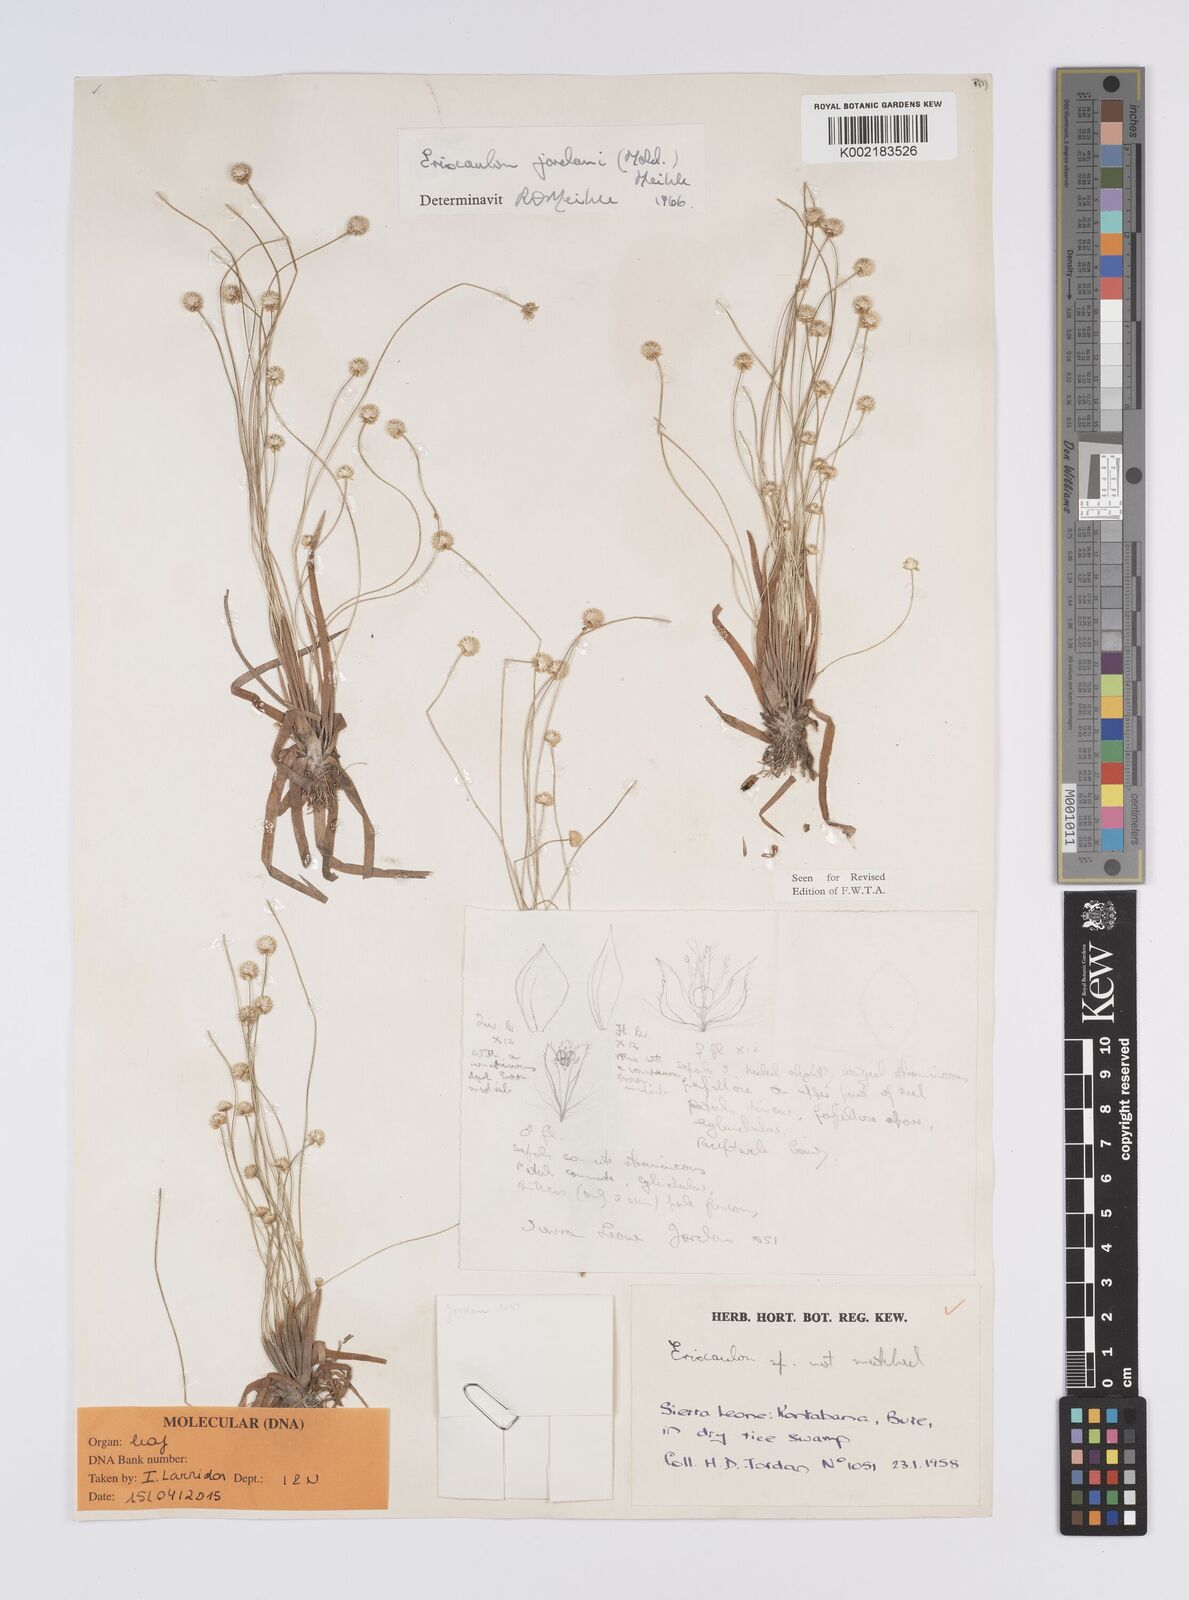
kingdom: Plantae
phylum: Tracheophyta
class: Liliopsida
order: Poales
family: Eriocaulaceae
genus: Eriocaulon
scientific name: Eriocaulon jordanii
